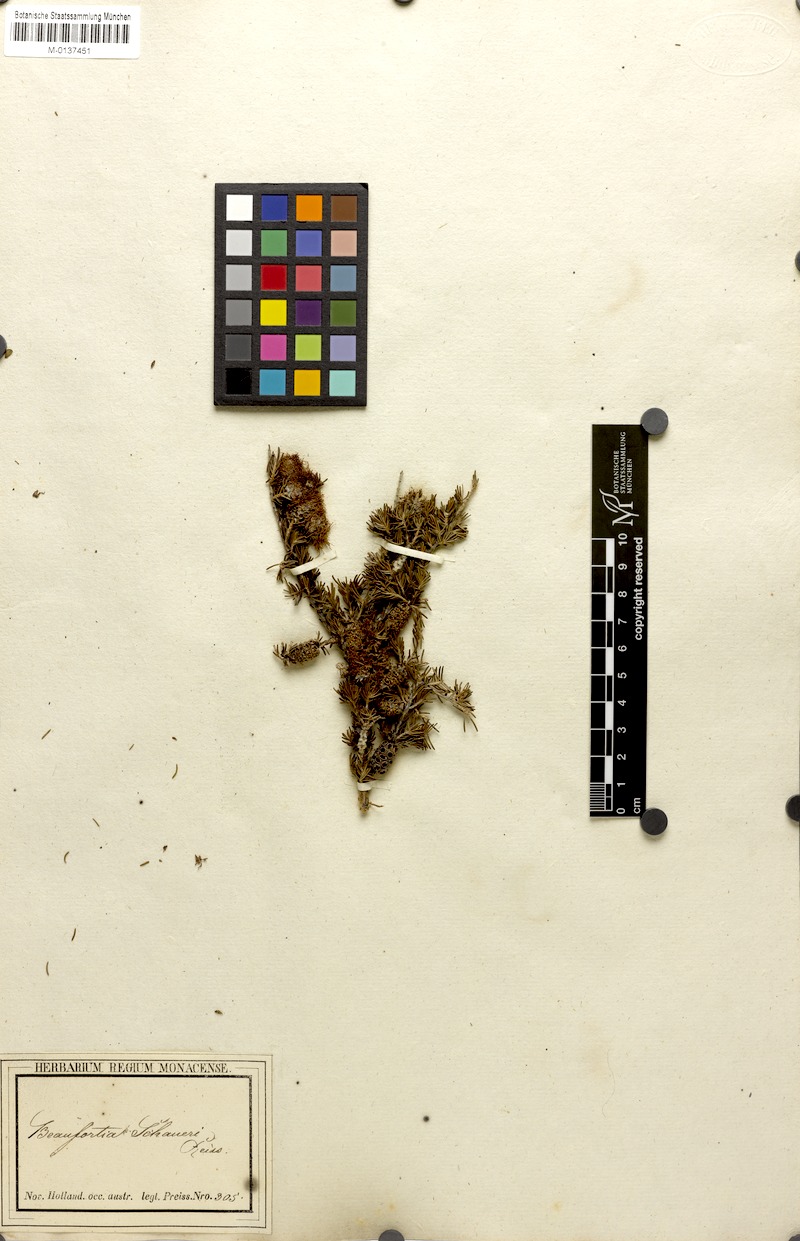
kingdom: Plantae
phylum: Tracheophyta
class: Magnoliopsida
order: Myrtales
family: Myrtaceae
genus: Melaleuca
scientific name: Melaleuca jonesii
